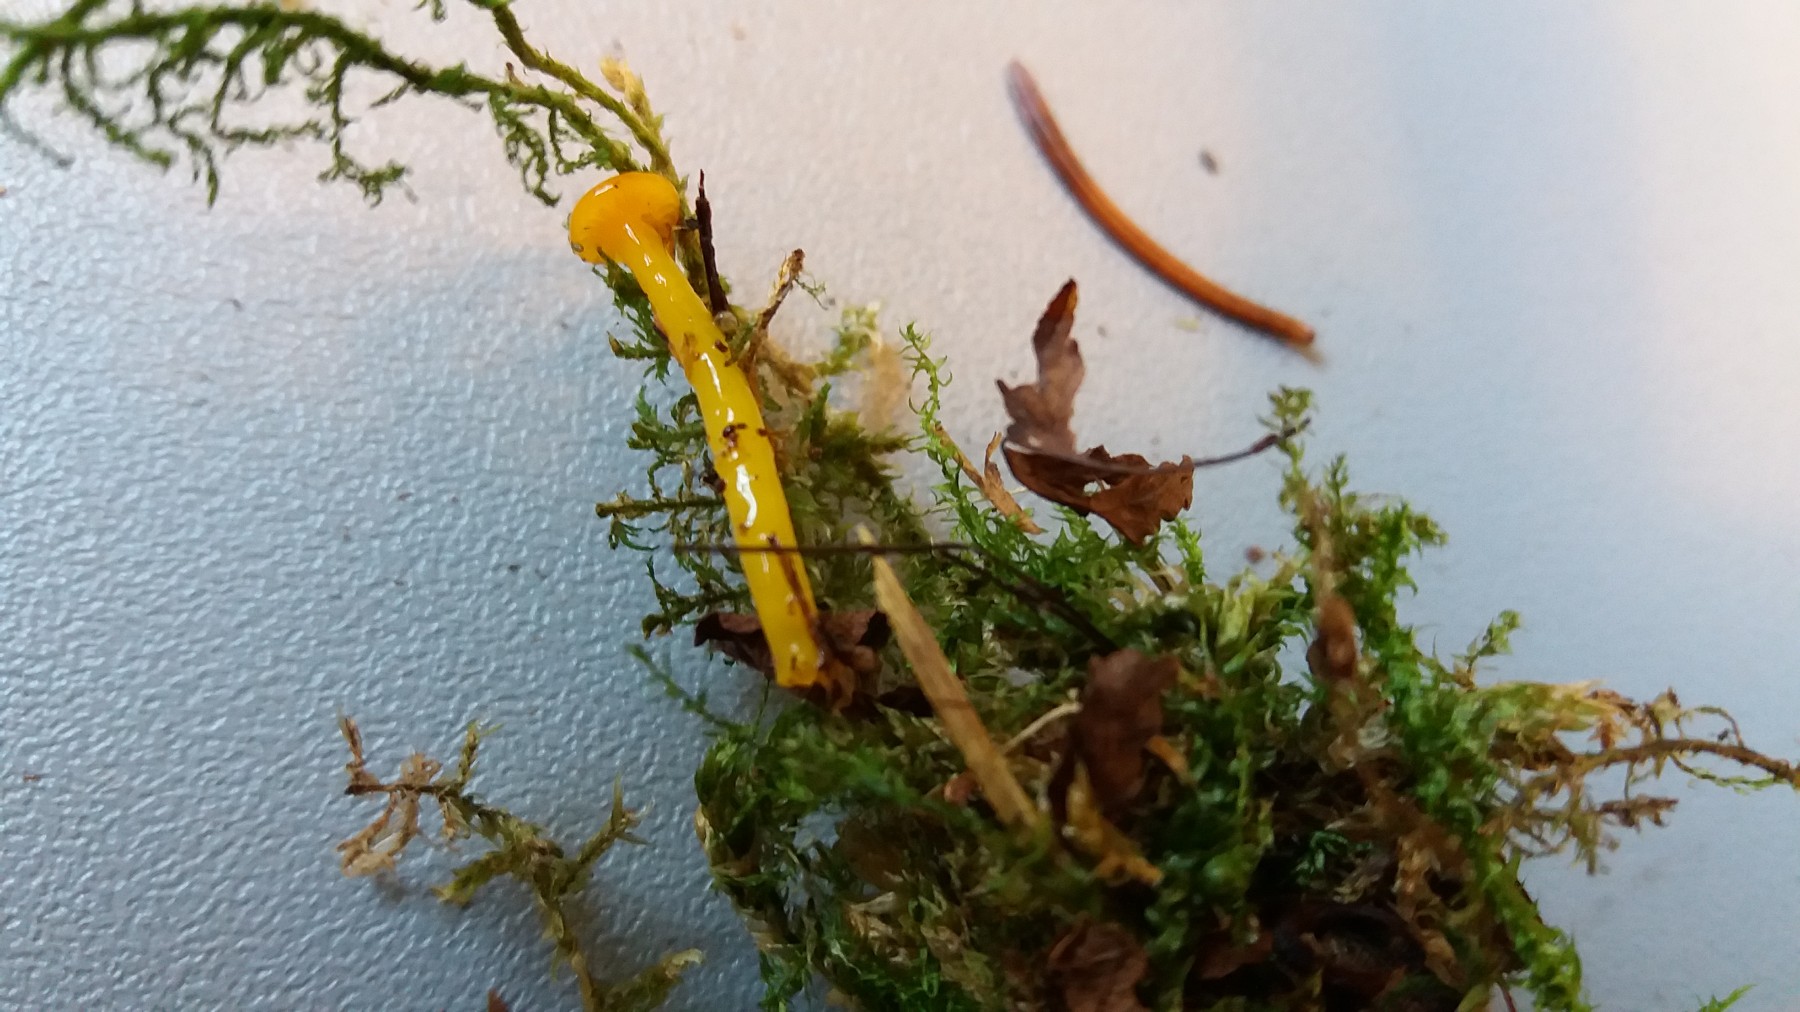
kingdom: Fungi
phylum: Basidiomycota
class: Agaricomycetes
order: Agaricales
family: Hygrophoraceae
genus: Gloioxanthomyces
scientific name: Gloioxanthomyces vitellinus
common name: kromgul vokshat
